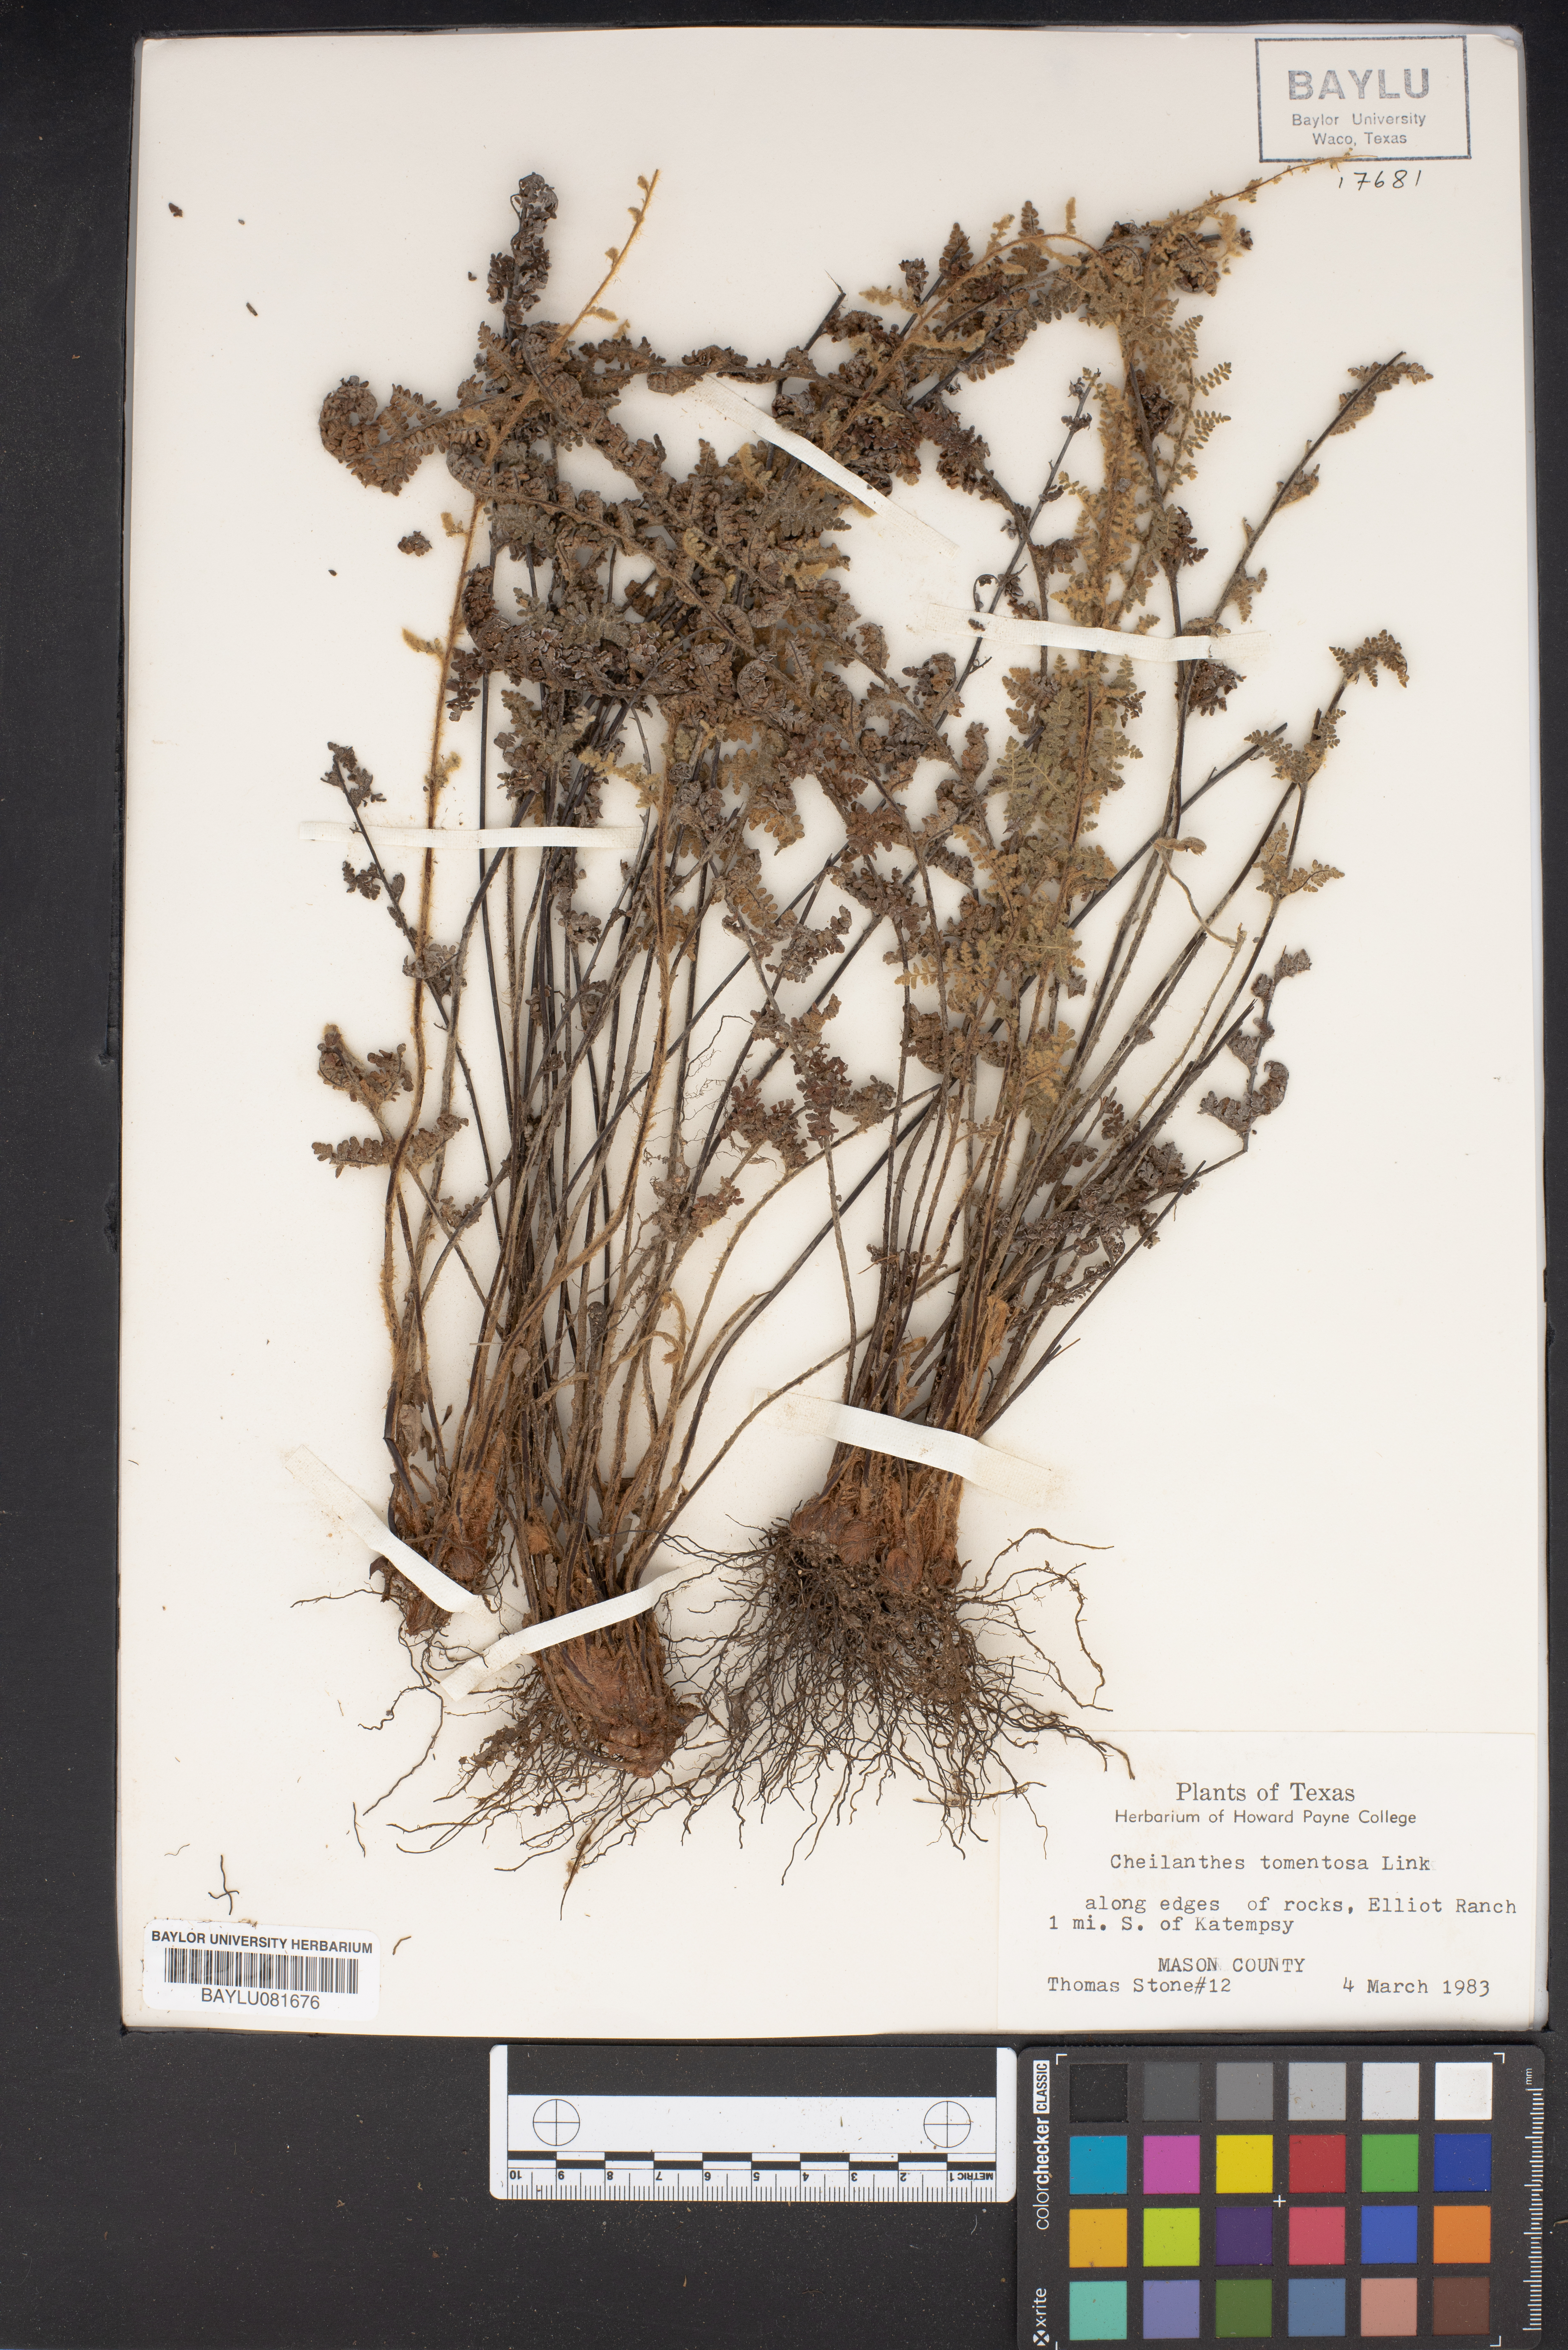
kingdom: Plantae
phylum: Tracheophyta
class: Polypodiopsida
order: Polypodiales
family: Pteridaceae
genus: Myriopteris
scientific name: Myriopteris tomentosa
